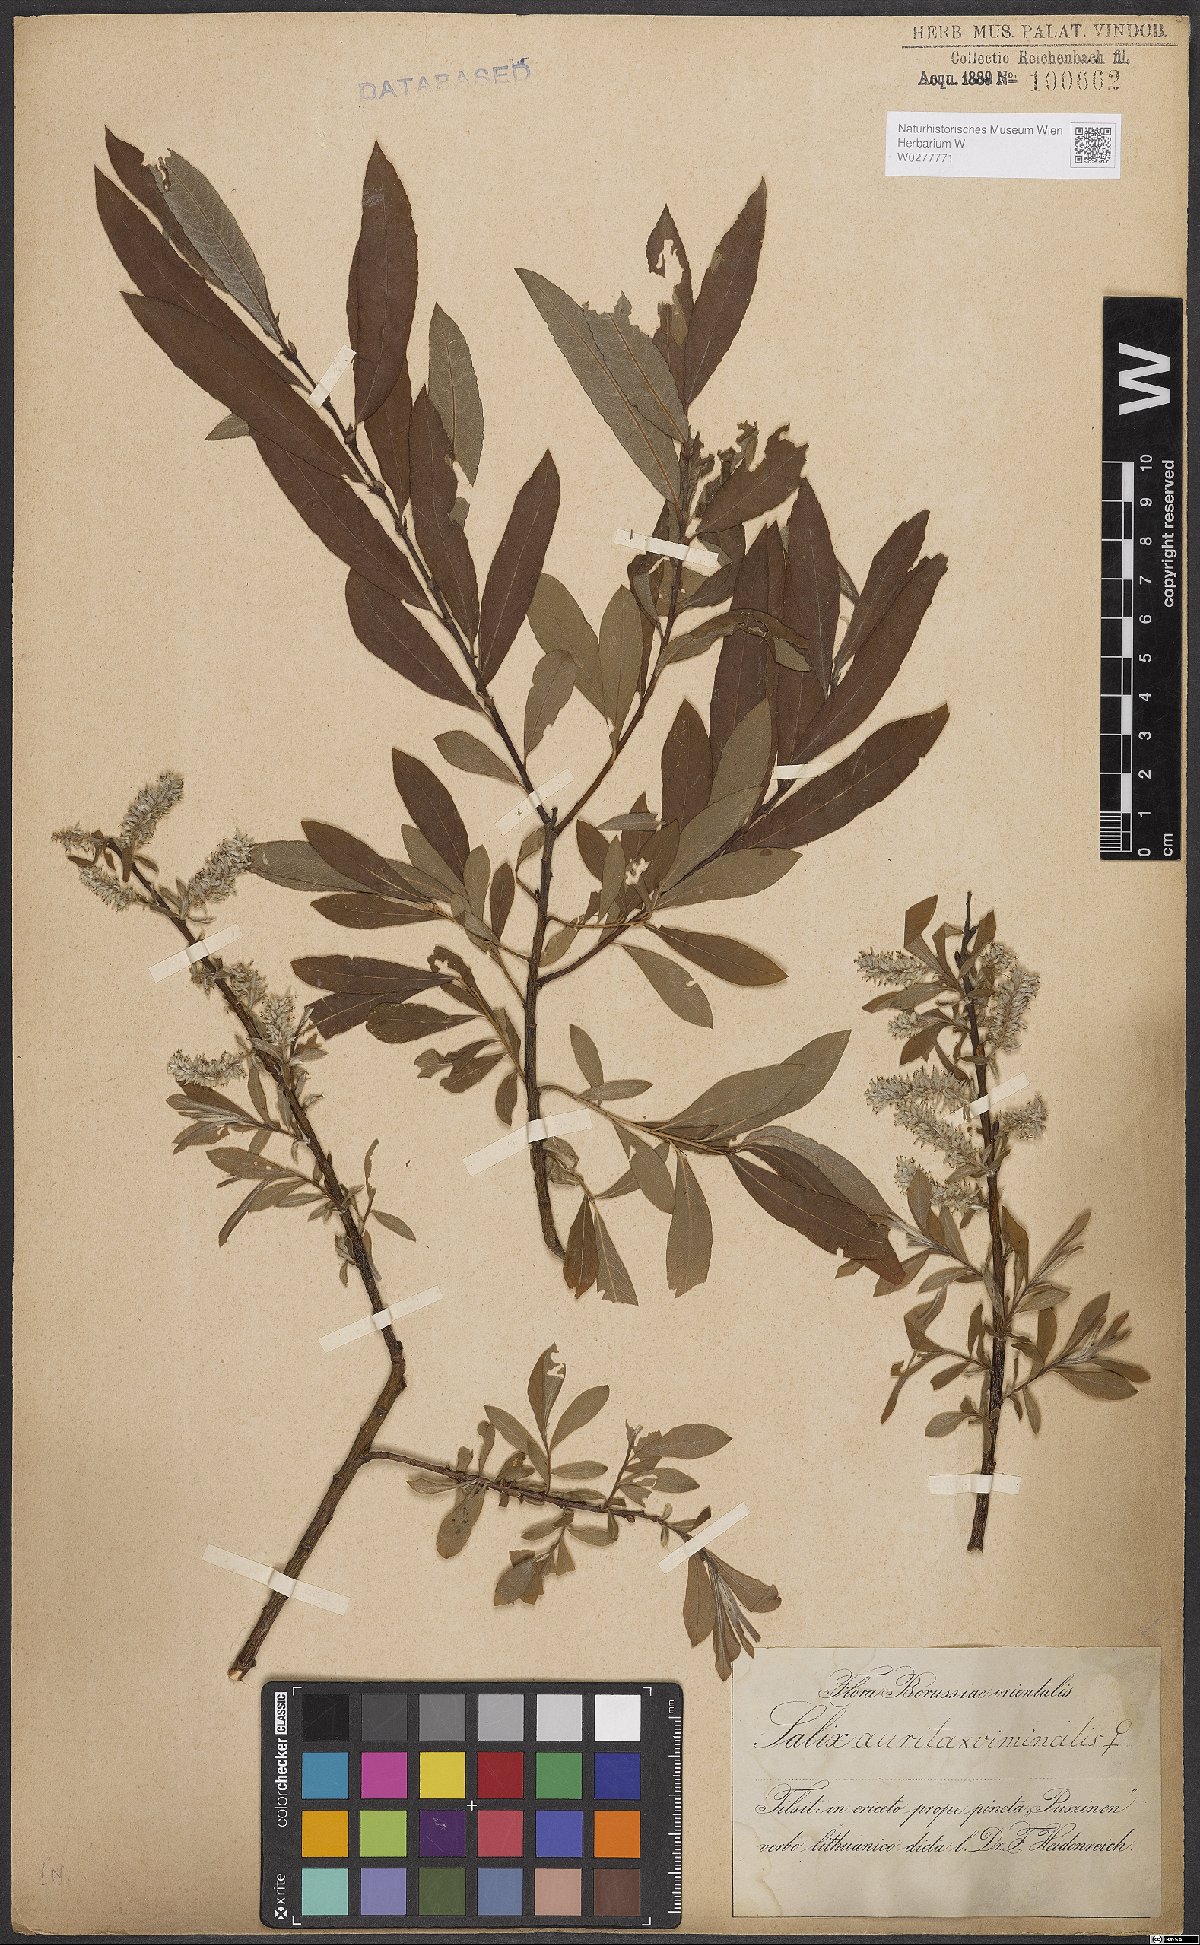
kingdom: Plantae
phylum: Tracheophyta
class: Magnoliopsida
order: Malpighiales
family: Salicaceae
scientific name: Salicaceae
